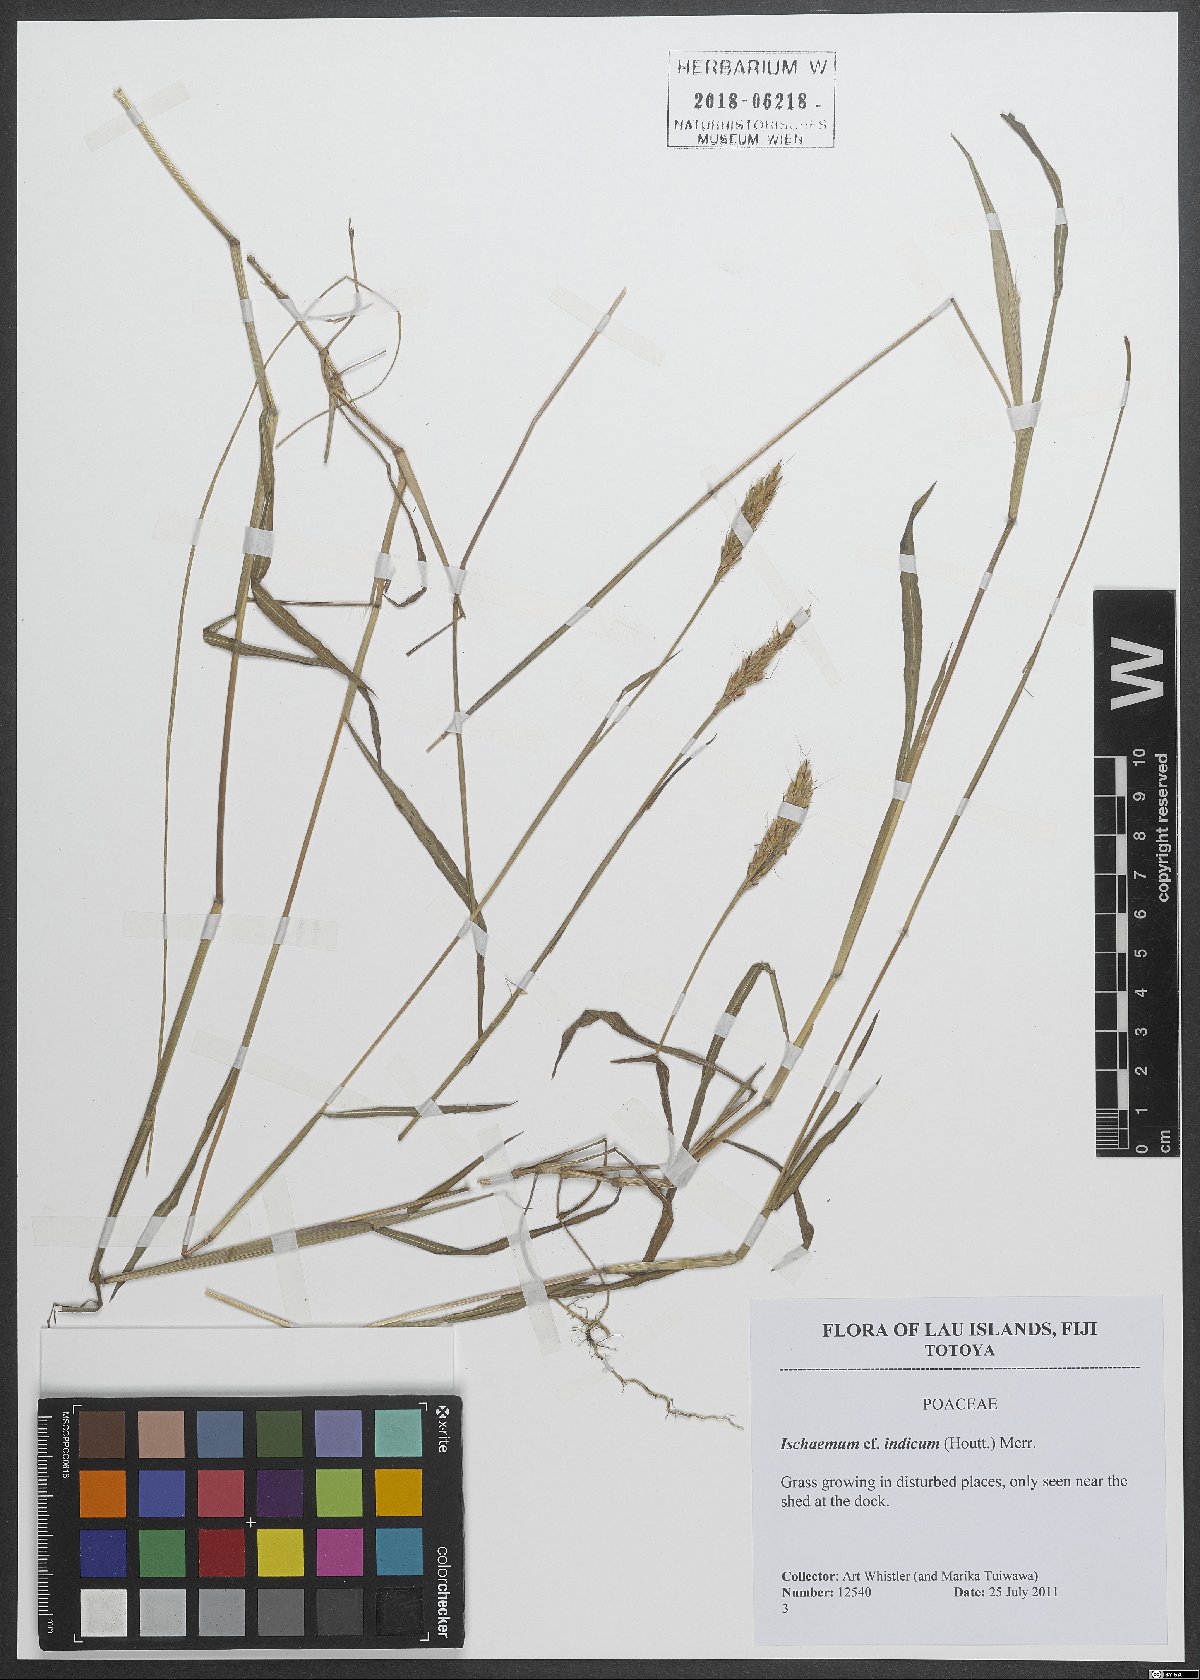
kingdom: Plantae
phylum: Tracheophyta
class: Liliopsida
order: Poales
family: Poaceae
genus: Polytrias
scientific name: Polytrias indica
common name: Indian murainagrass
